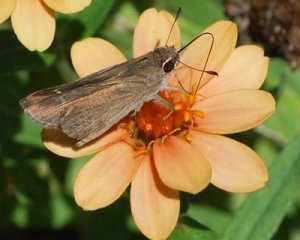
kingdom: Animalia
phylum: Arthropoda
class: Insecta
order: Lepidoptera
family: Hesperiidae
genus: Lerodea
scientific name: Lerodea eufala
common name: Eufala Skipper
